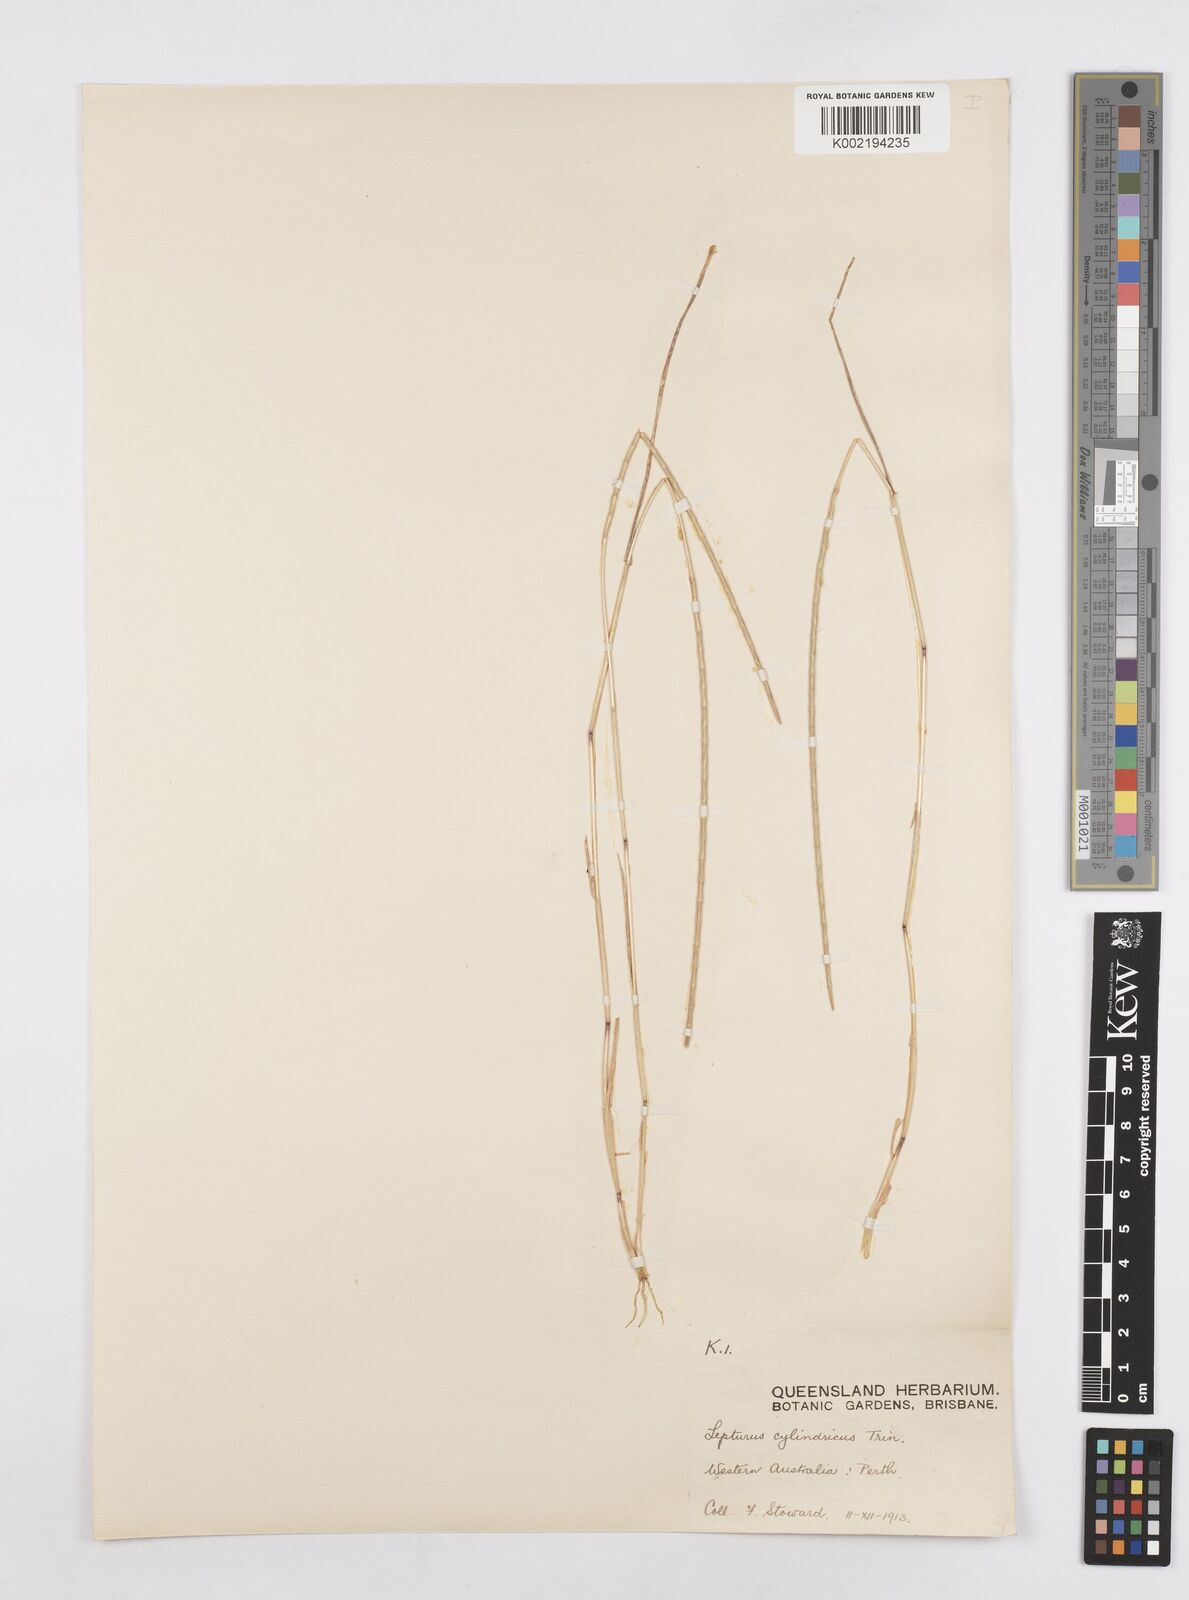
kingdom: Plantae
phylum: Tracheophyta
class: Liliopsida
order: Poales
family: Poaceae
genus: Parapholis
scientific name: Parapholis cylindrica
